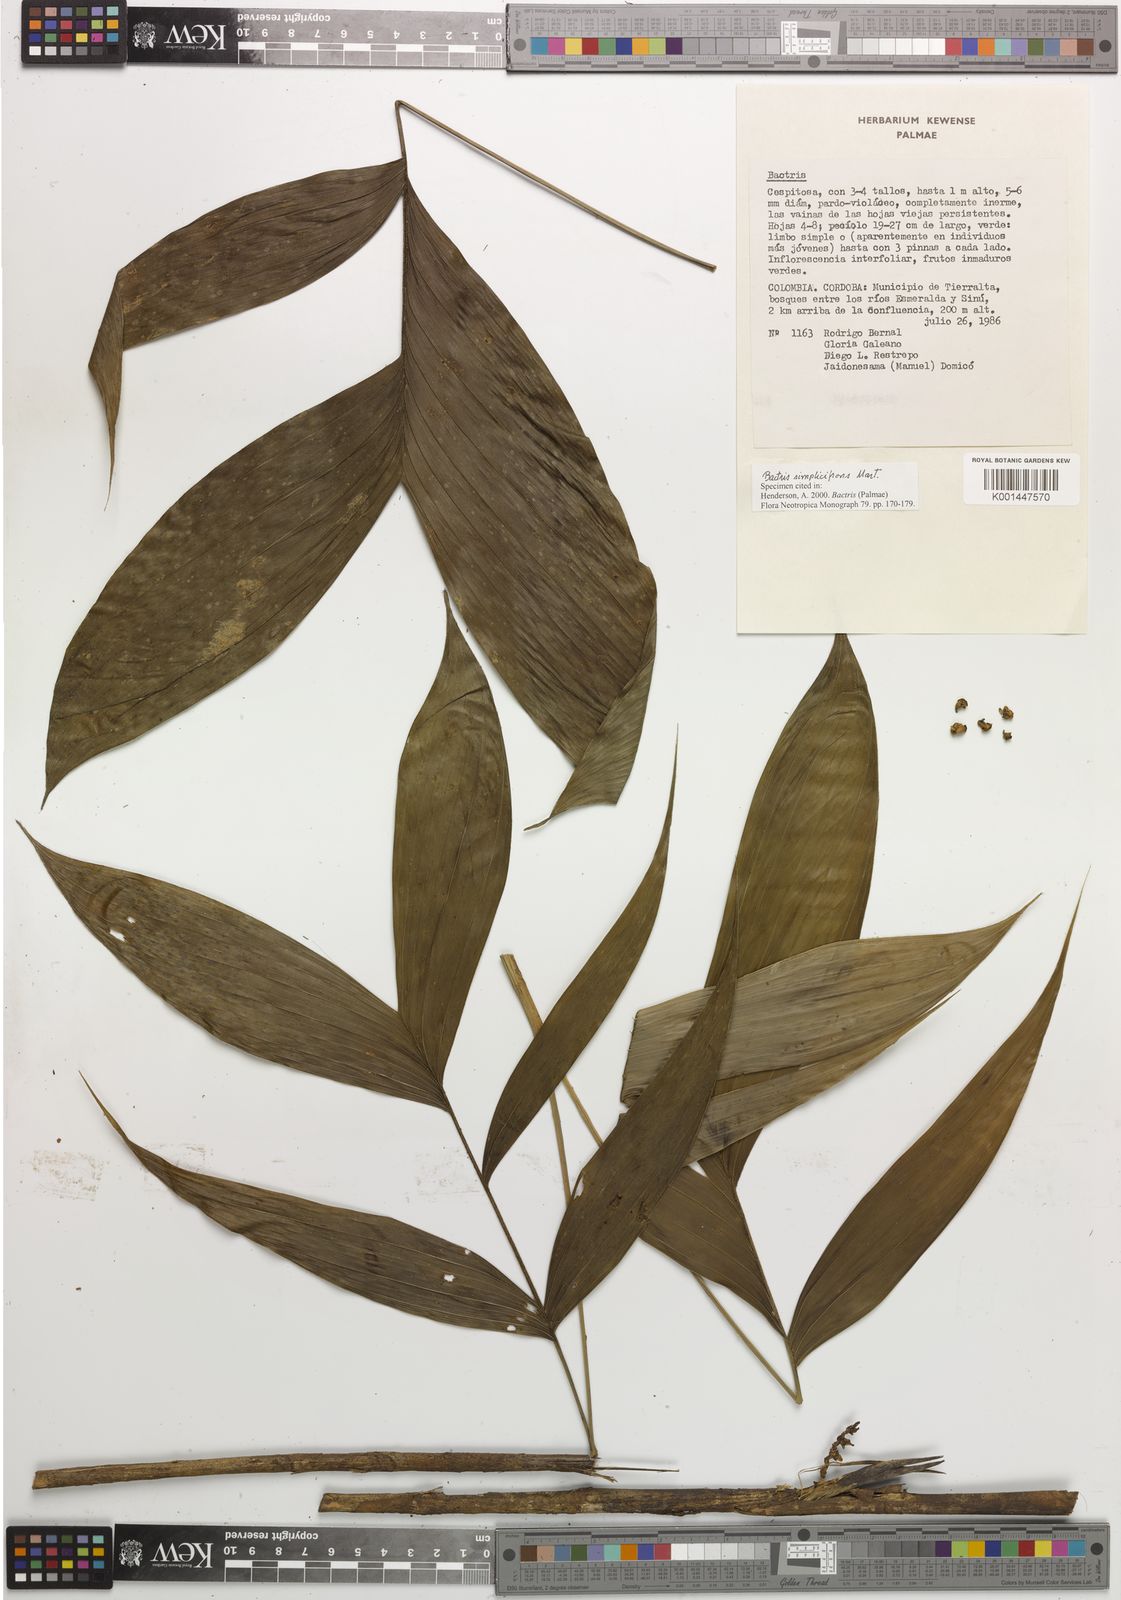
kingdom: Plantae
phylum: Tracheophyta
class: Liliopsida
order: Arecales
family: Arecaceae
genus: Bactris
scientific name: Bactris simplicifrons
